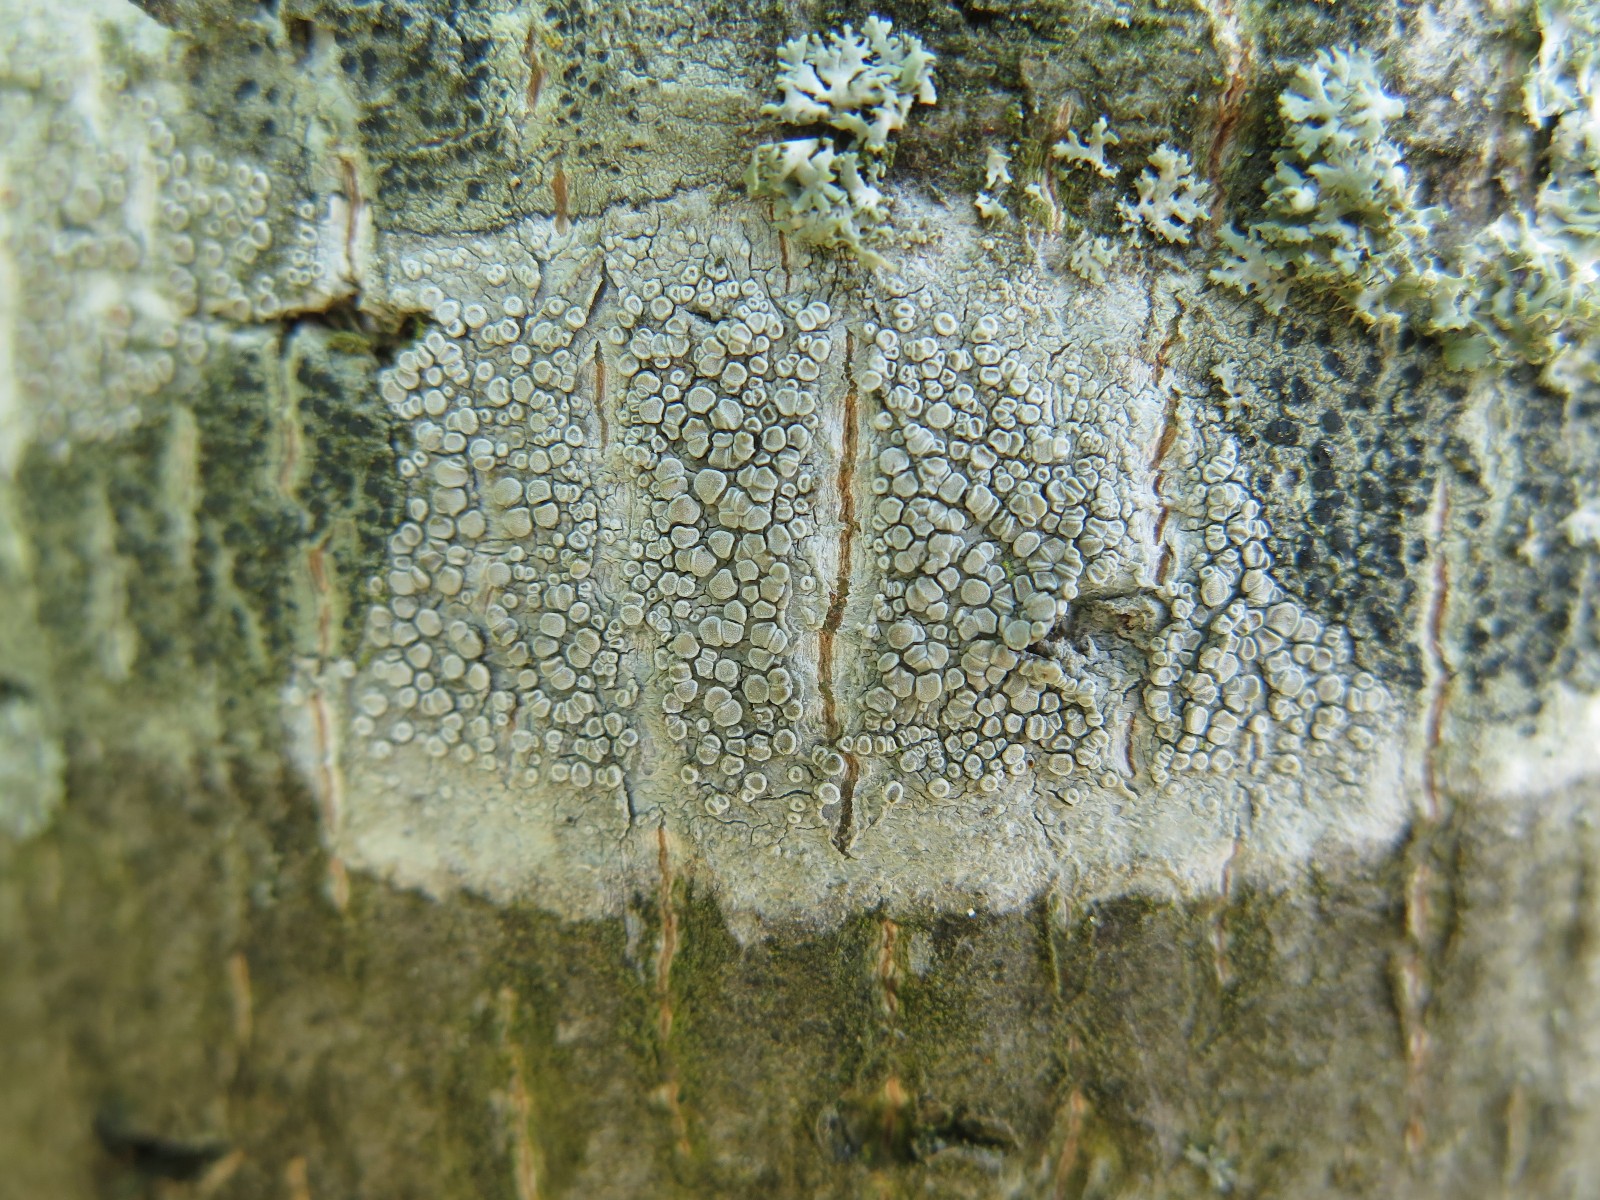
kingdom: Fungi
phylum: Ascomycota
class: Lecanoromycetes
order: Lecanorales
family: Lecanoraceae
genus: Glaucomaria
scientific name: Glaucomaria carpinea
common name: hviddugget kantskivelav
